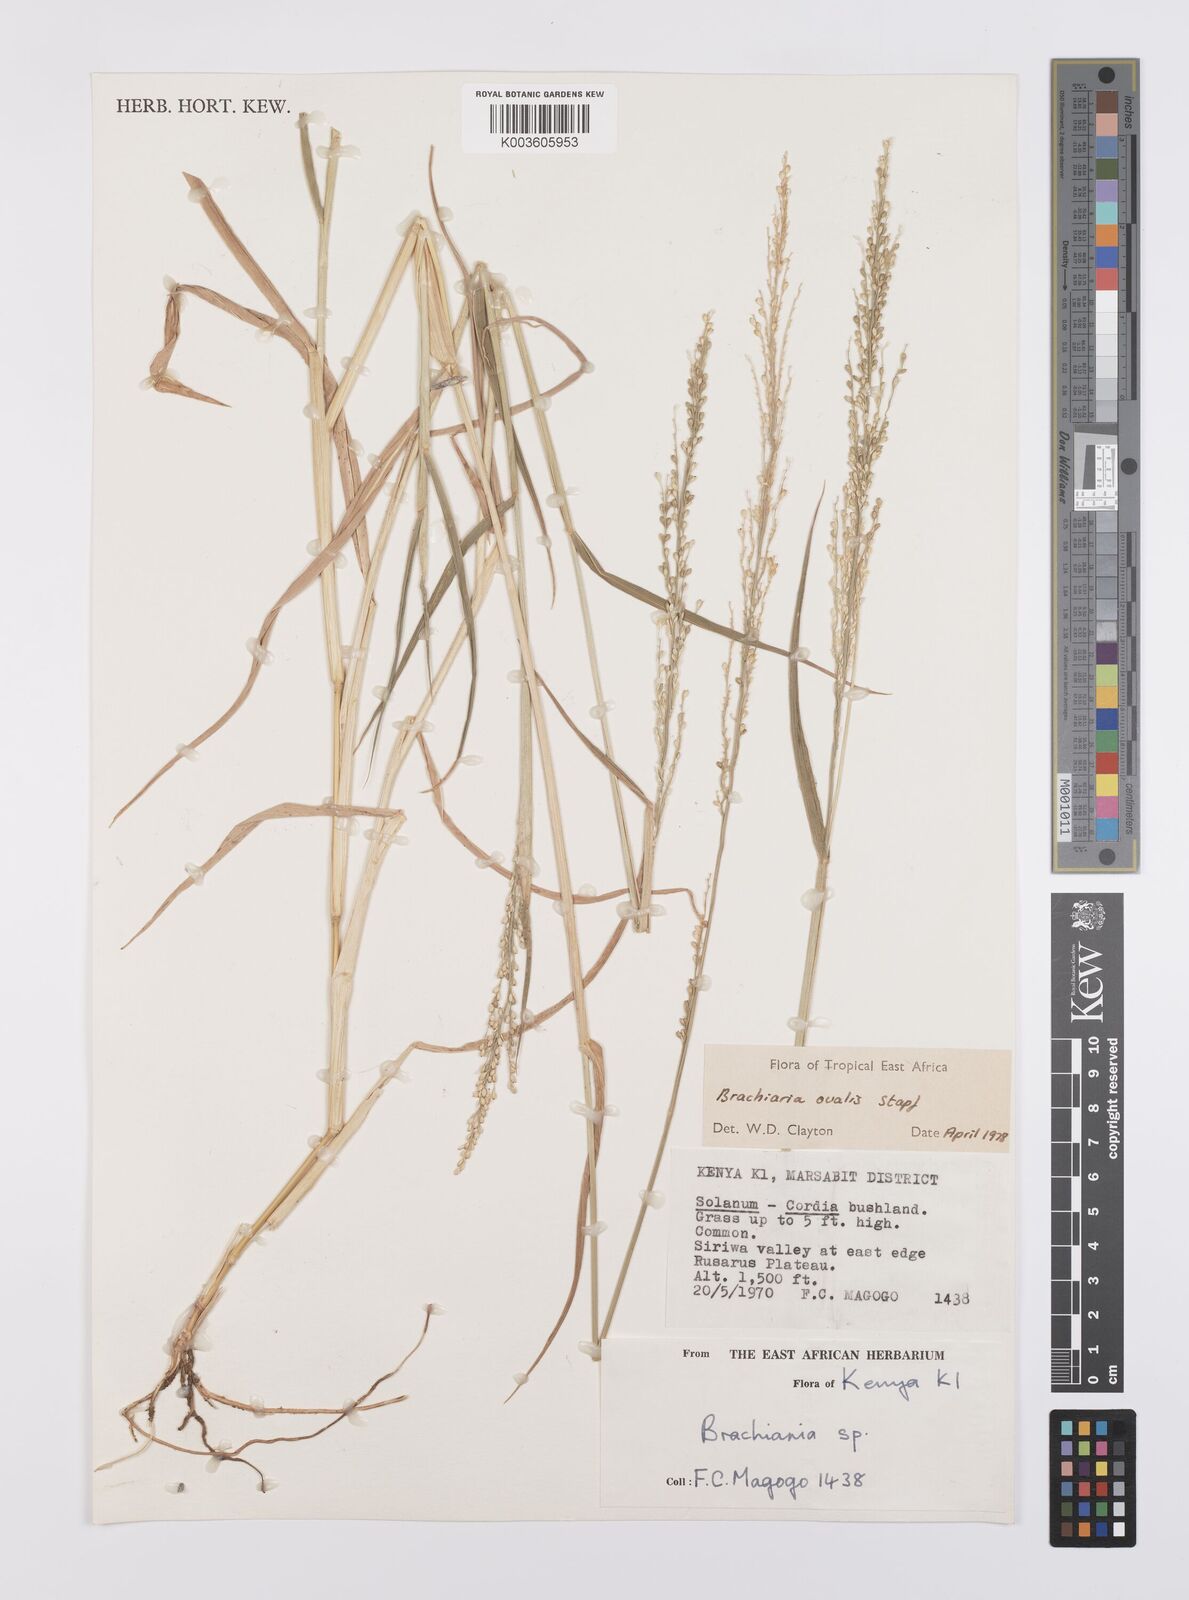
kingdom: Plantae
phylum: Tracheophyta
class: Liliopsida
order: Poales
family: Poaceae
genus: Urochloa
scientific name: Urochloa ovalis
